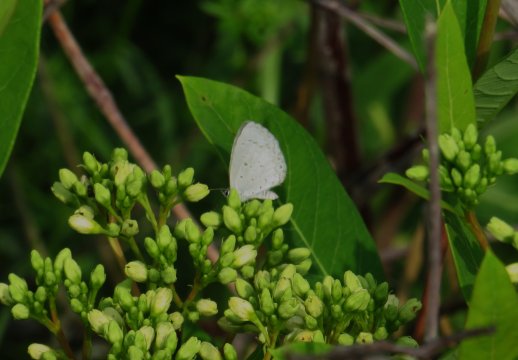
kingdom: Animalia
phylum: Arthropoda
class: Insecta
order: Lepidoptera
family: Lycaenidae
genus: Cyaniris
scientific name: Cyaniris neglecta
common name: Summer Azure
